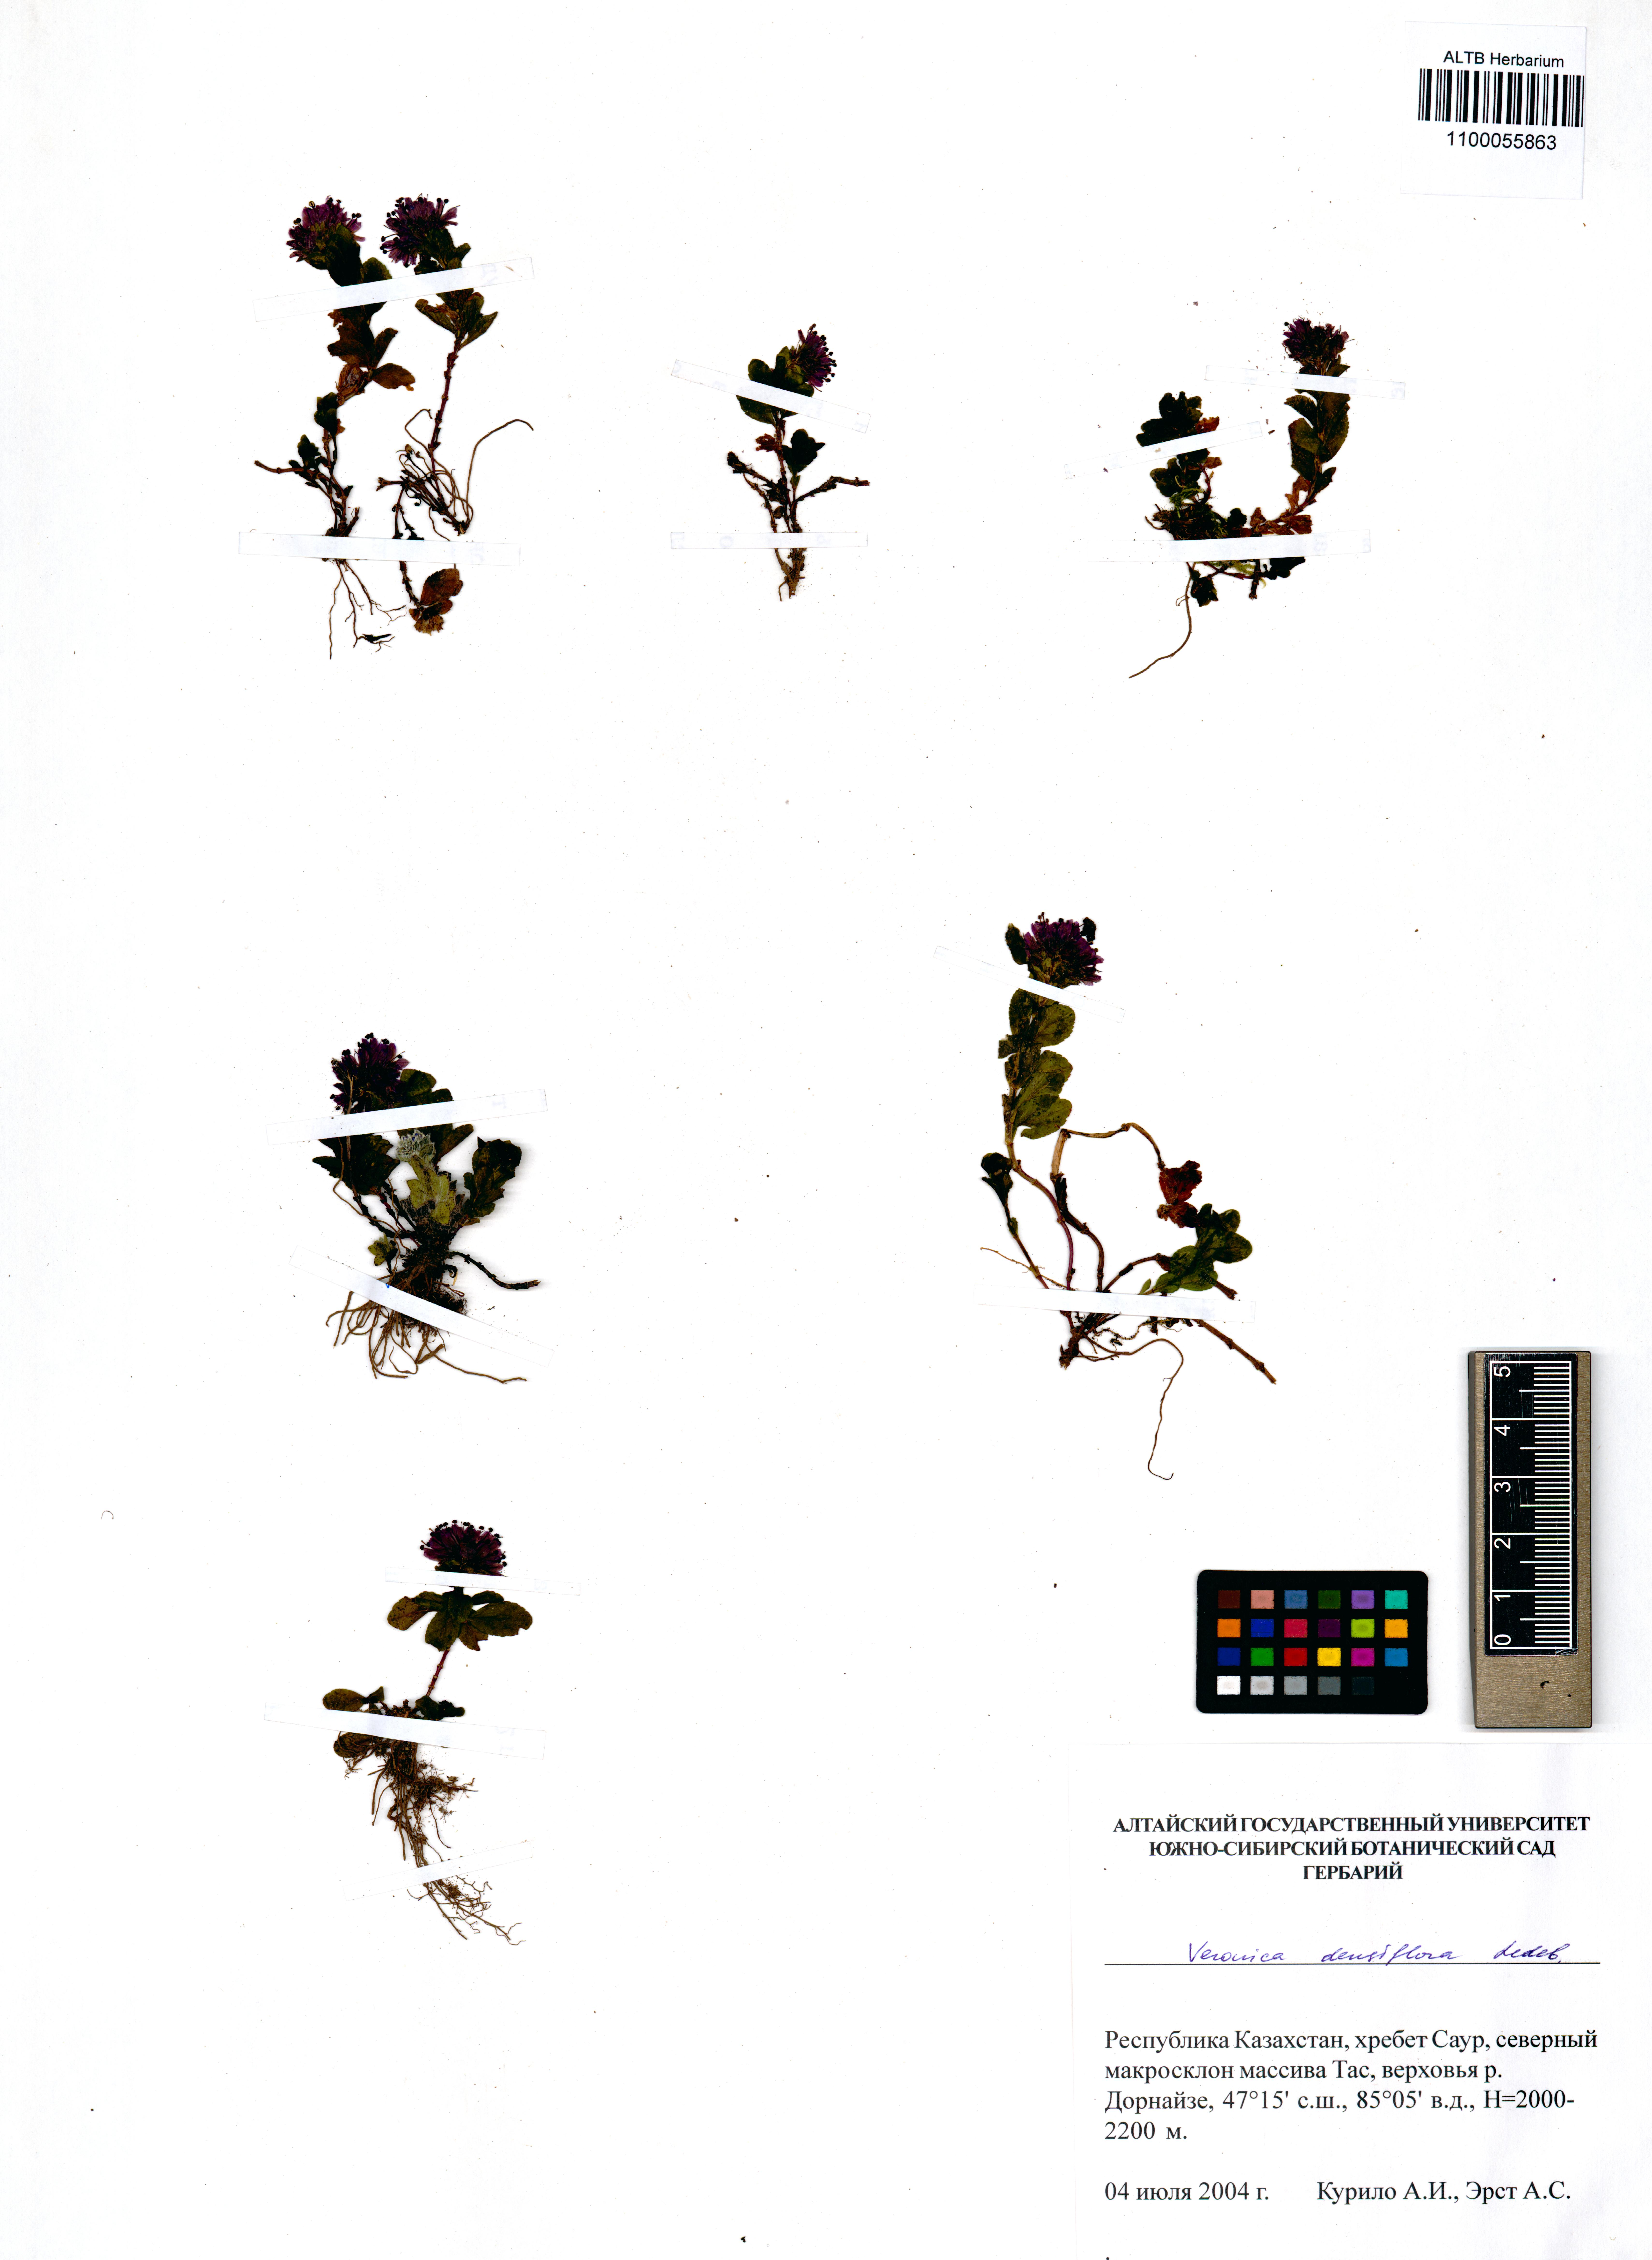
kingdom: Plantae
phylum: Tracheophyta
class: Magnoliopsida
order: Lamiales
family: Plantaginaceae
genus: Veronica
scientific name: Veronica densiflora
